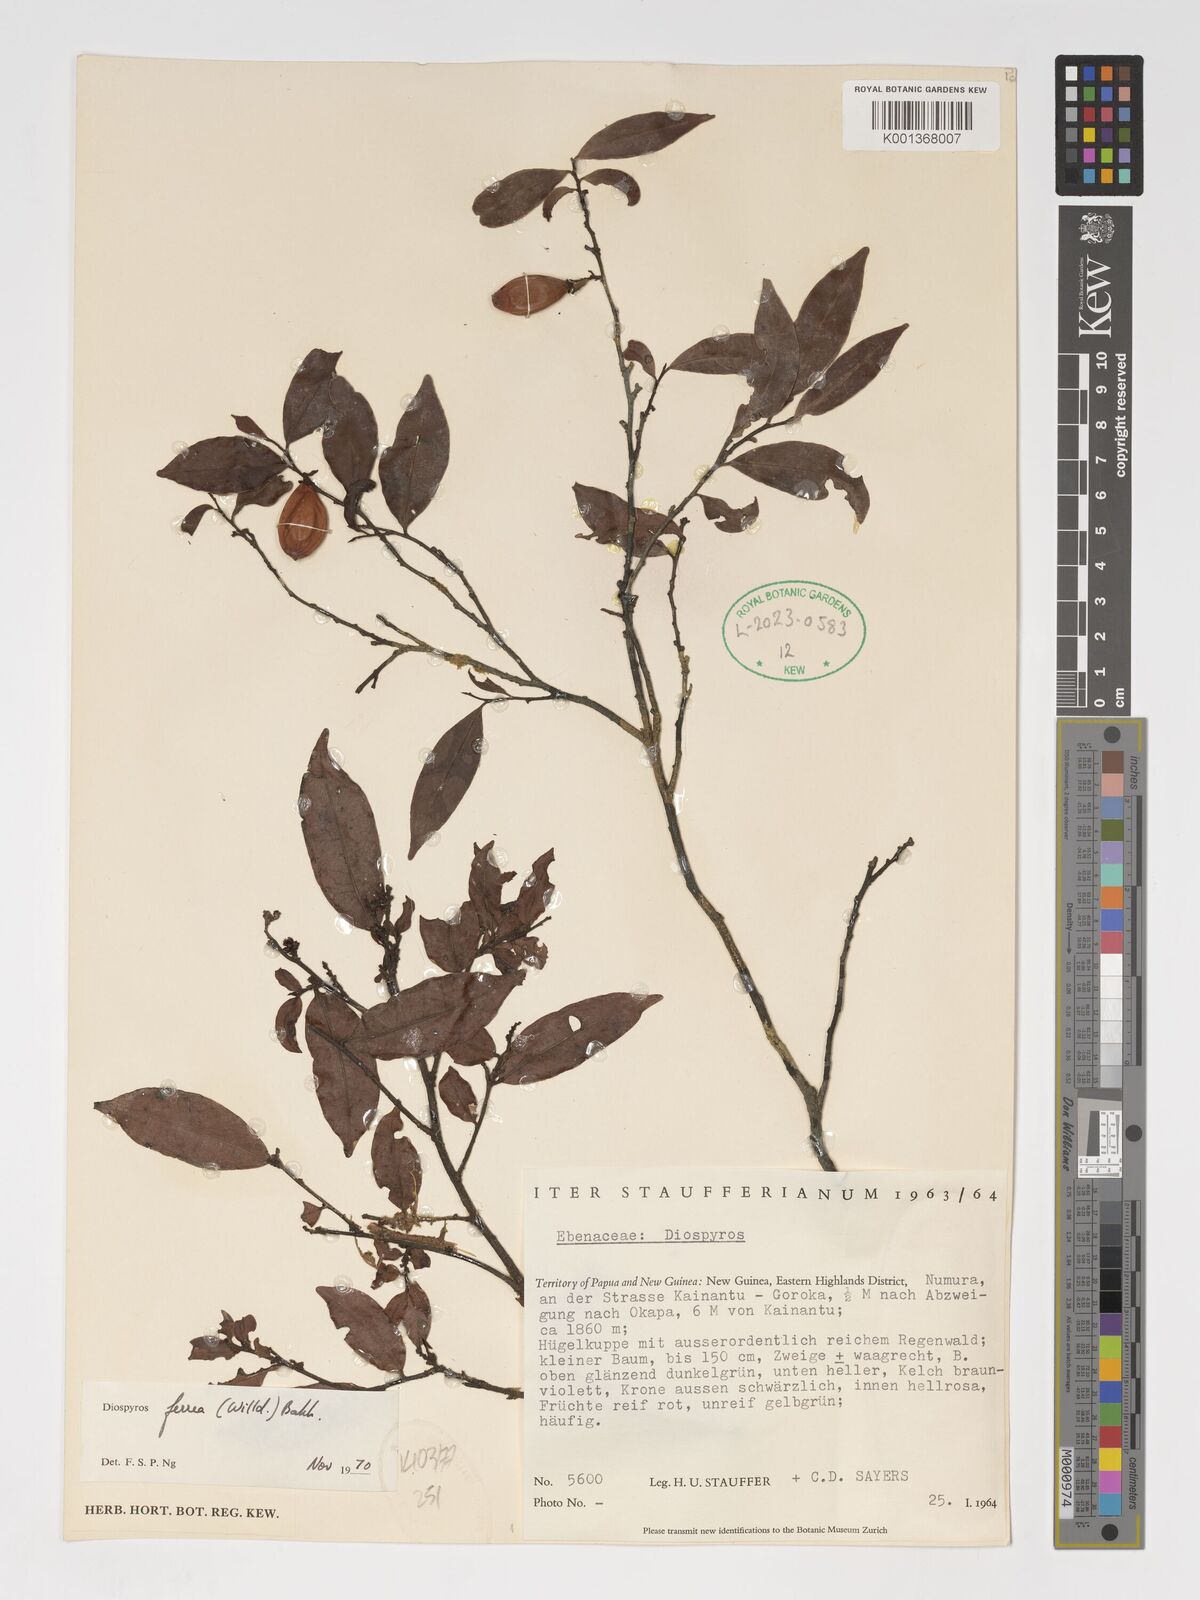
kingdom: Plantae
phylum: Tracheophyta
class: Magnoliopsida
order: Ericales
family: Ebenaceae
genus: Diospyros
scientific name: Diospyros ferrea
